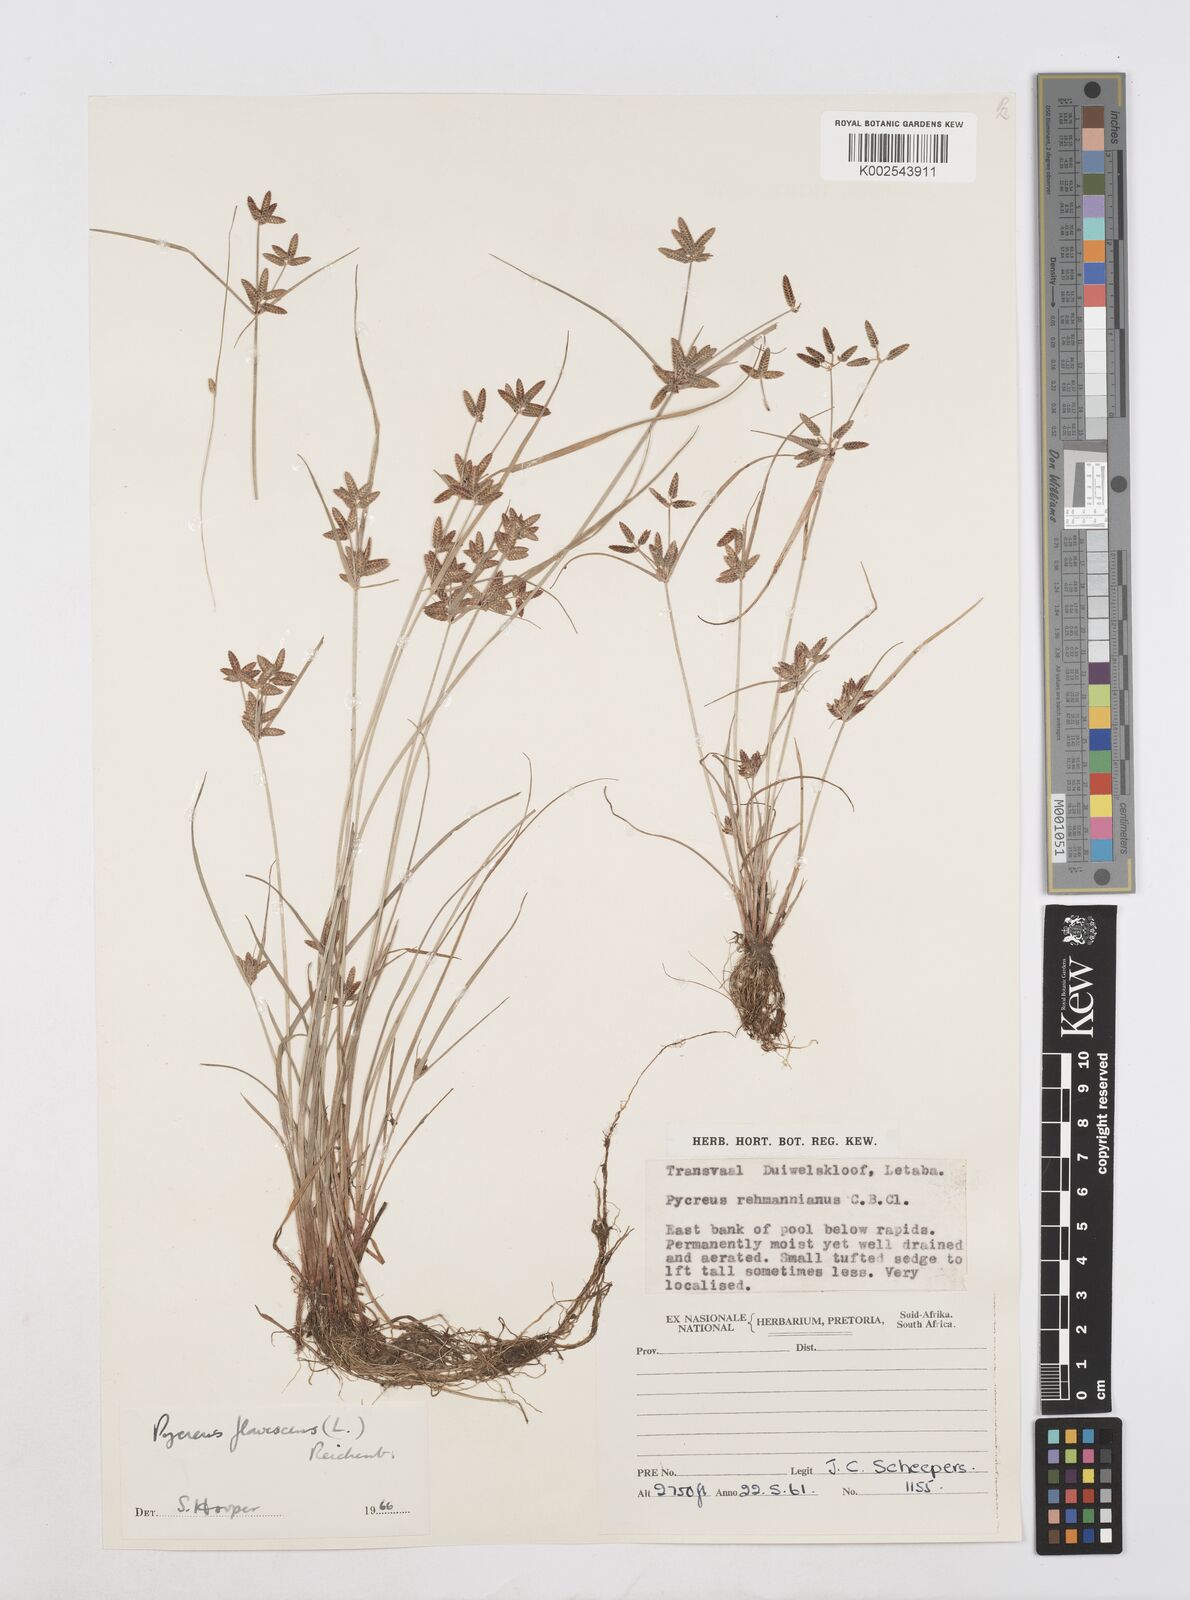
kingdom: Plantae
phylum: Tracheophyta
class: Liliopsida
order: Poales
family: Cyperaceae
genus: Cyperus
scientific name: Cyperus flavescens
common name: Yellow galingale
